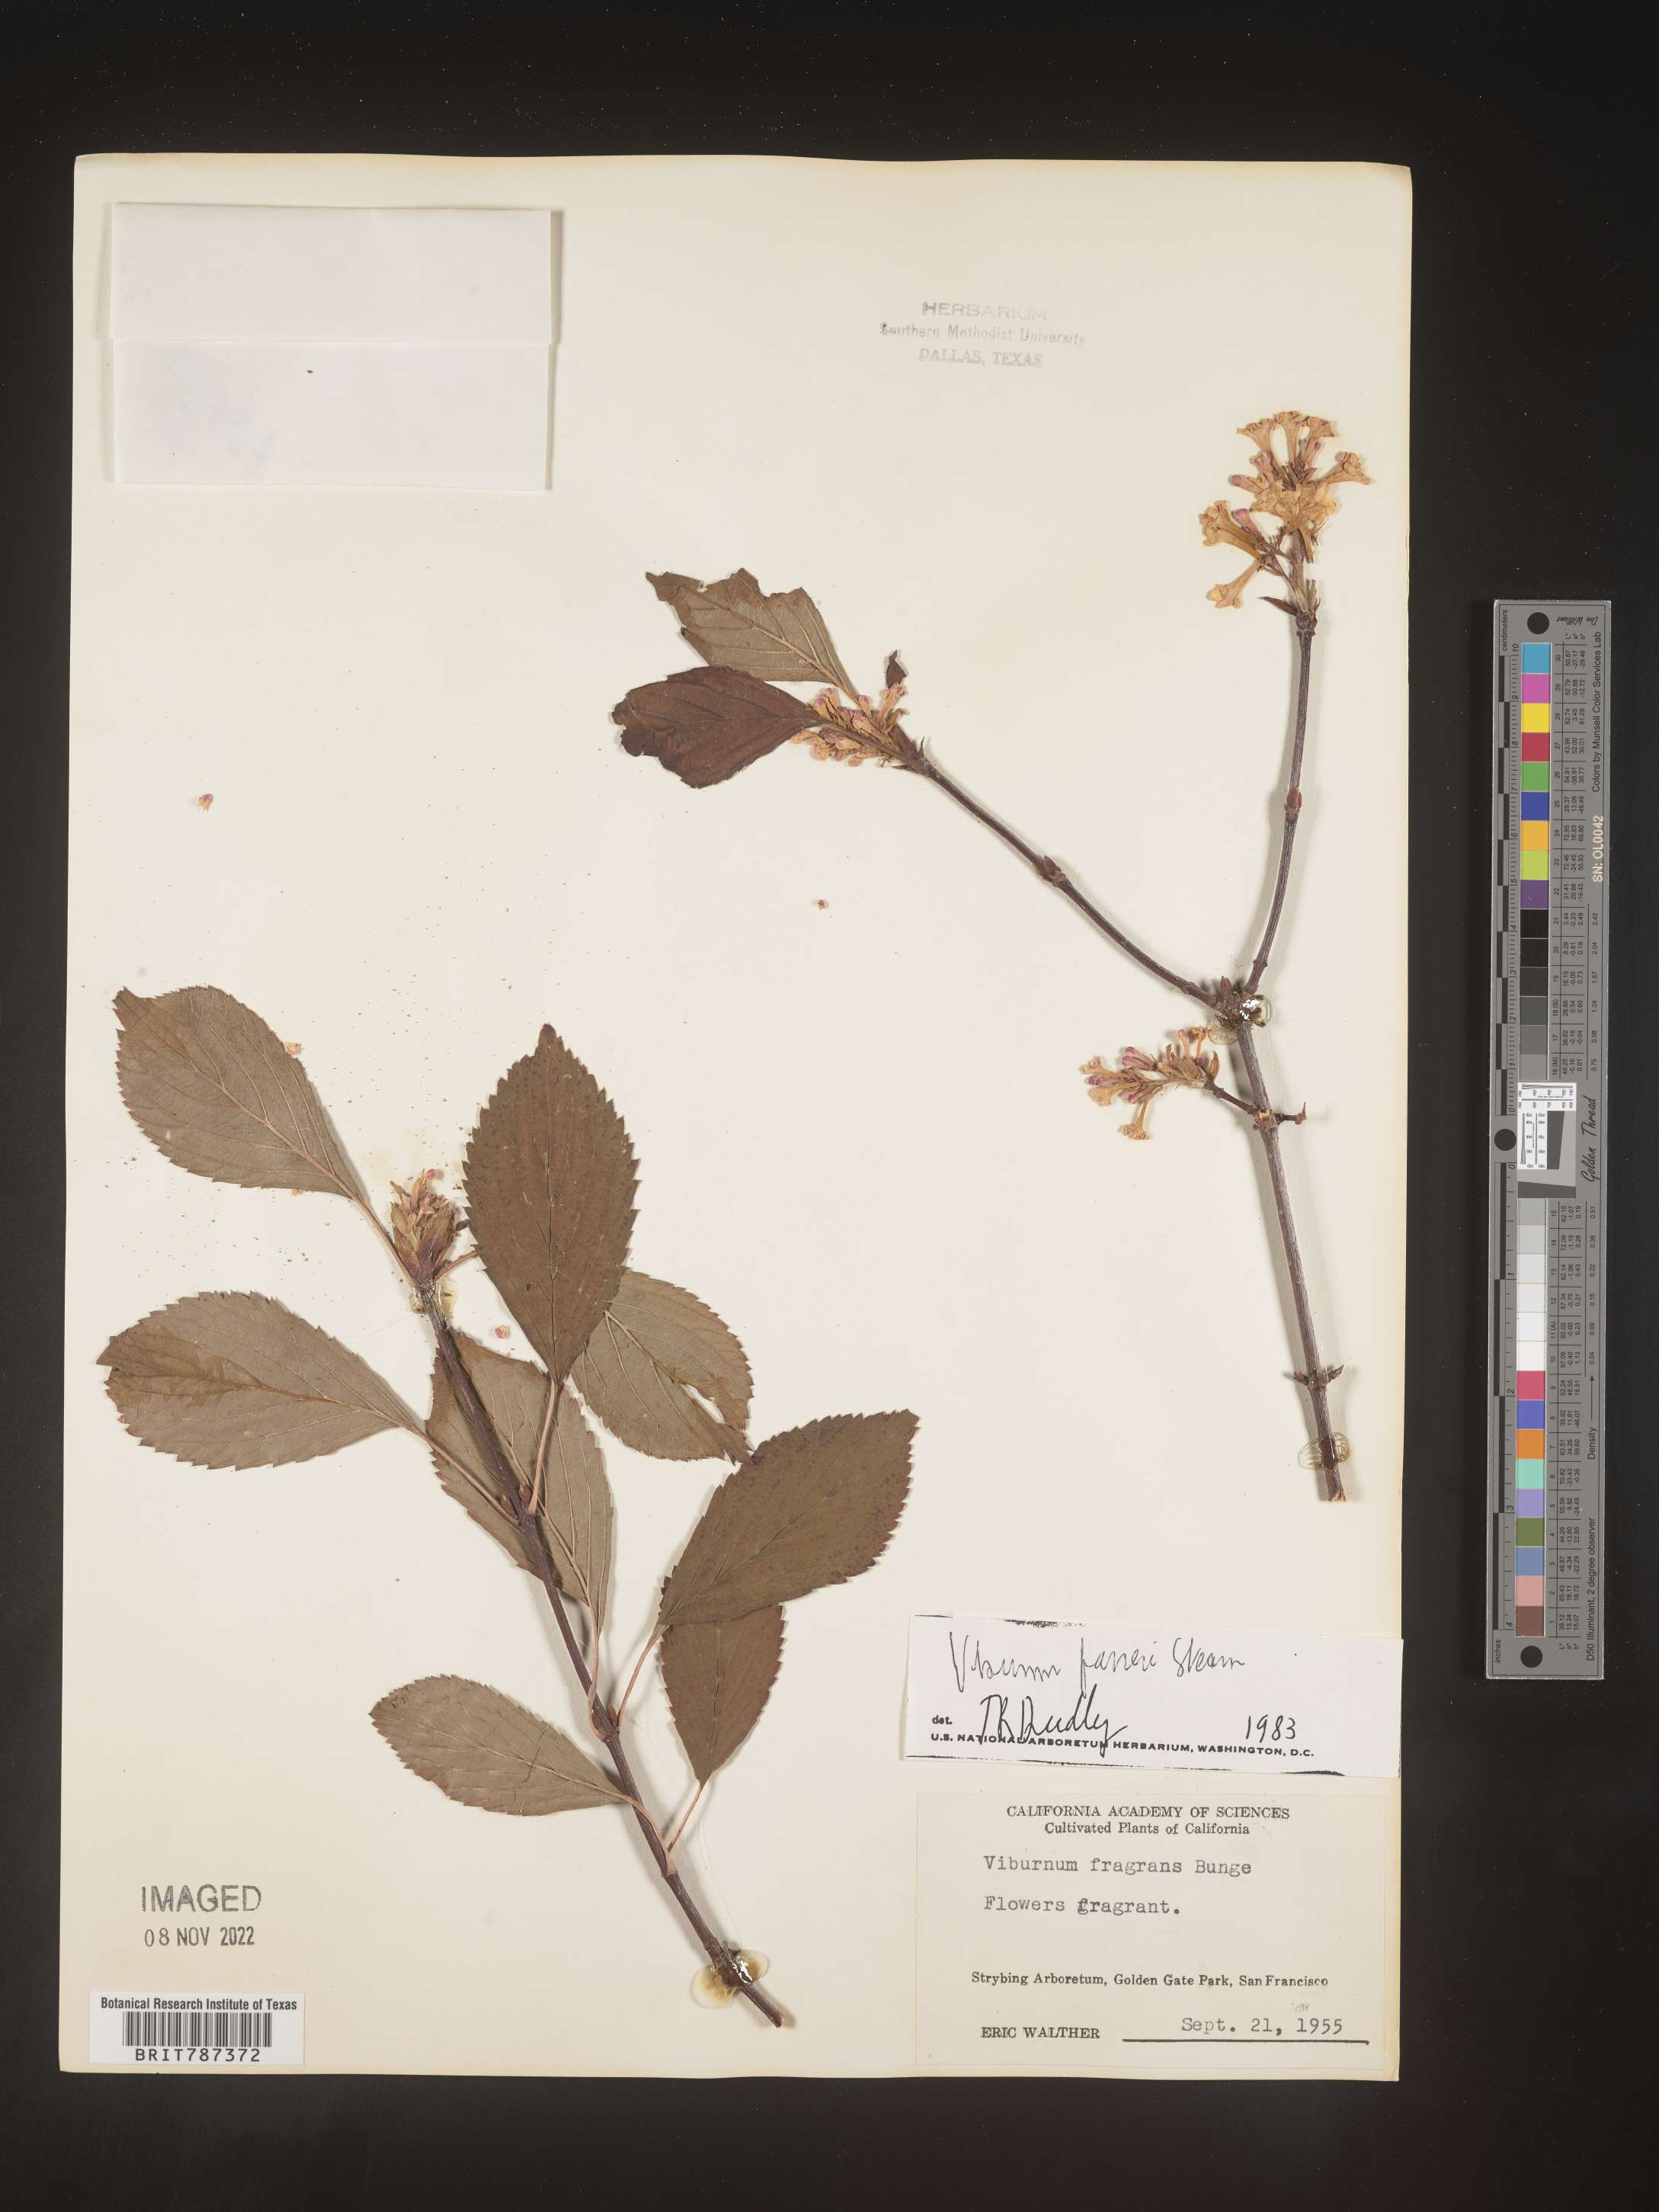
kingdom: Plantae
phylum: Tracheophyta
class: Magnoliopsida
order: Dipsacales
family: Viburnaceae
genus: Viburnum
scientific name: Viburnum
